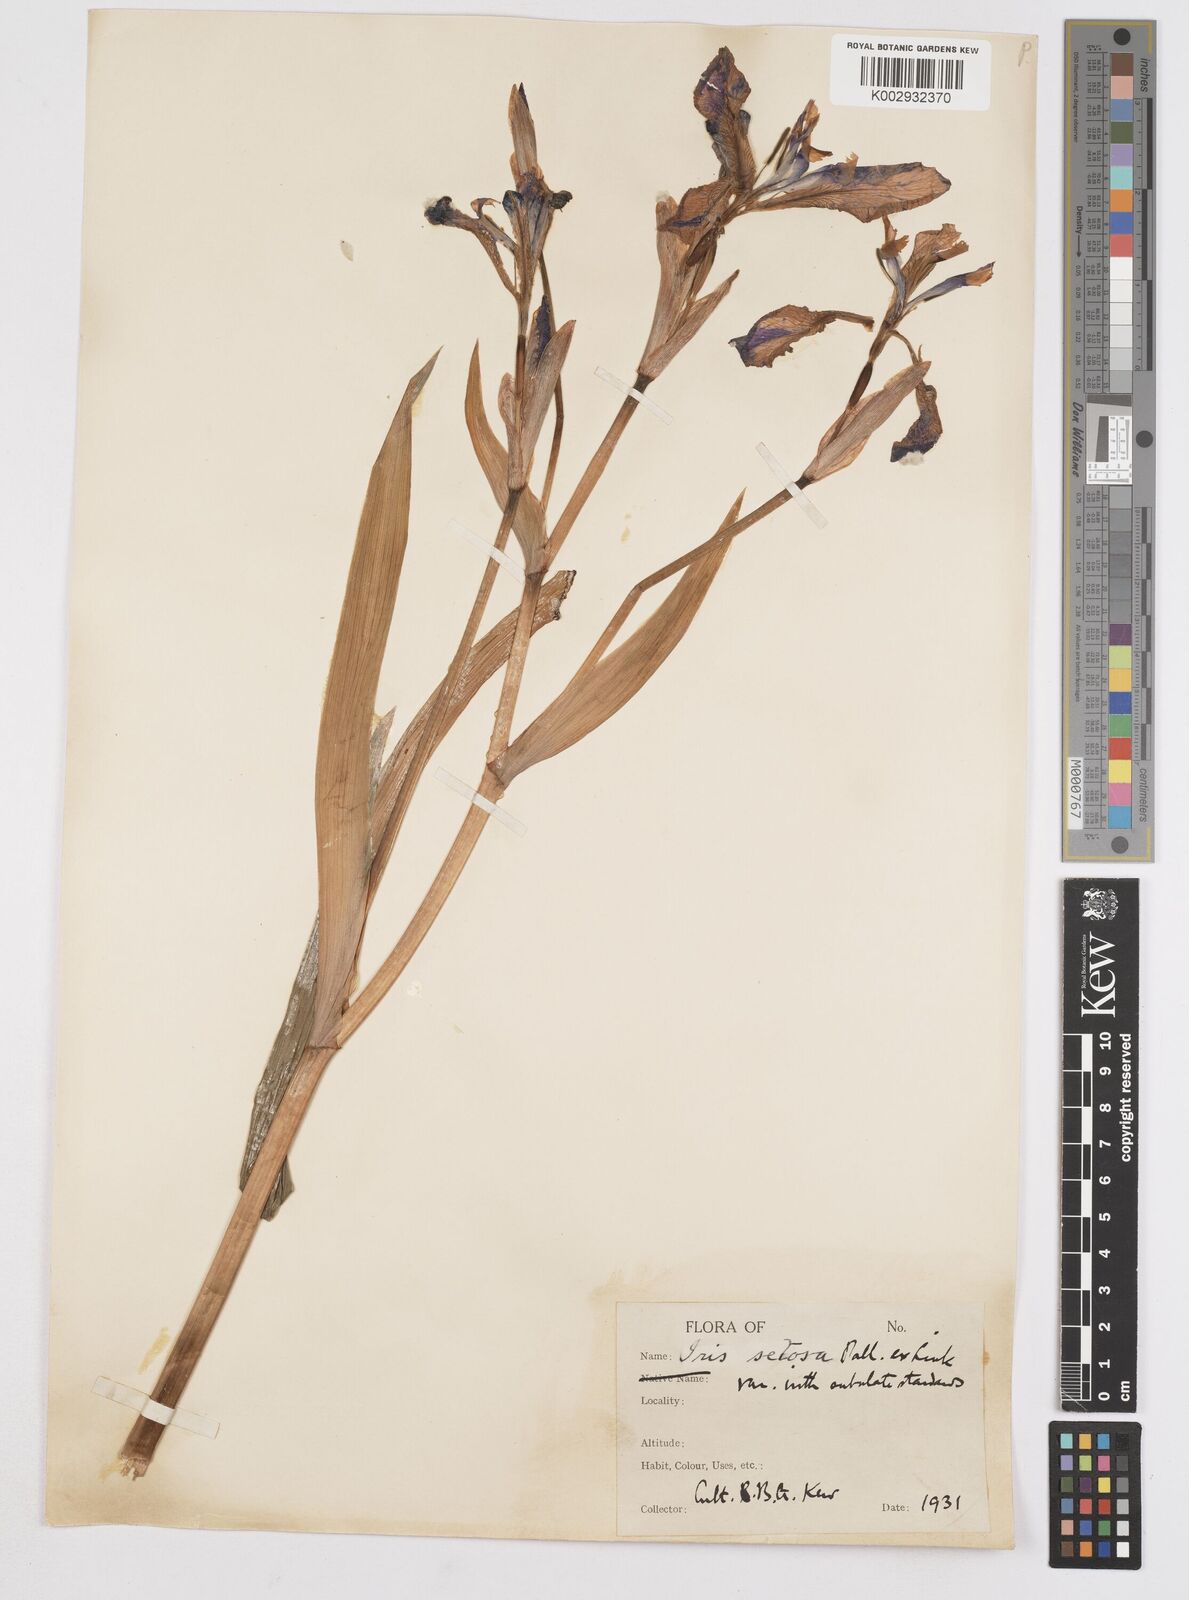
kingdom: Plantae
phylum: Tracheophyta
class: Liliopsida
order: Asparagales
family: Iridaceae
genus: Iris
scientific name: Iris setosa
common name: Arctic blue flag
